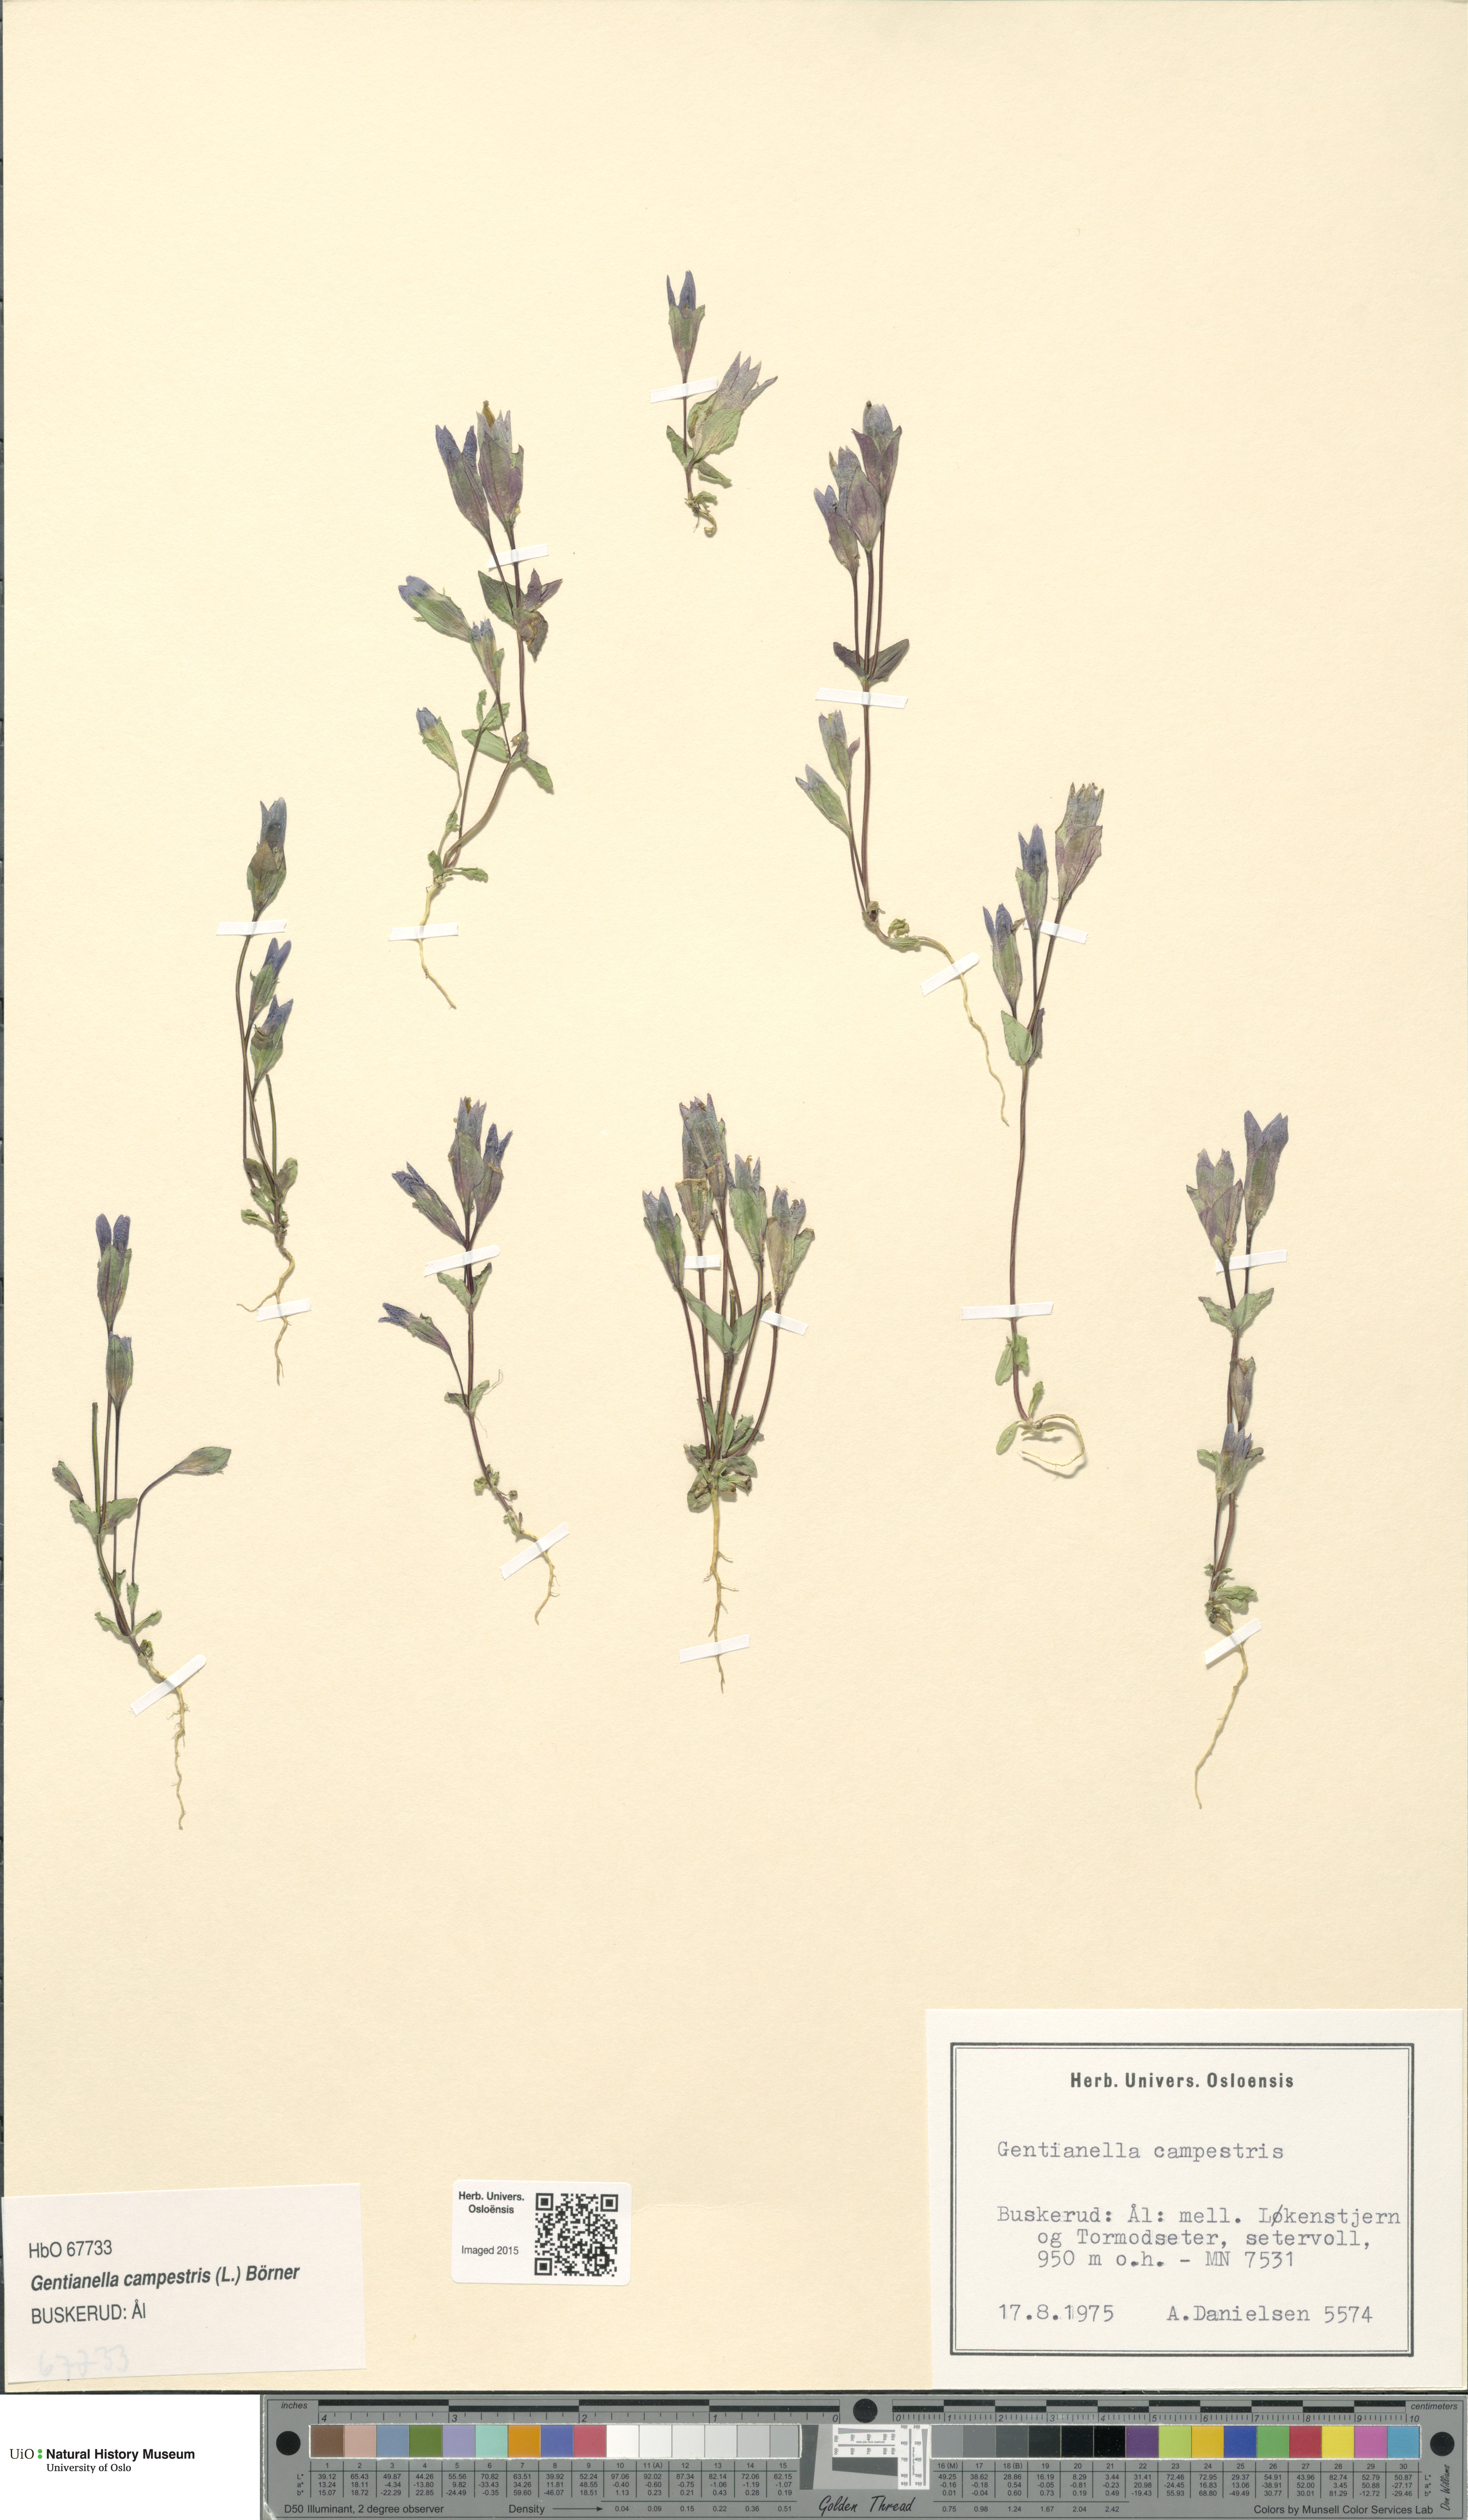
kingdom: Plantae
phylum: Tracheophyta
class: Magnoliopsida
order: Gentianales
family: Gentianaceae
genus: Gentianella
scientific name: Gentianella campestris
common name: Field gentian
